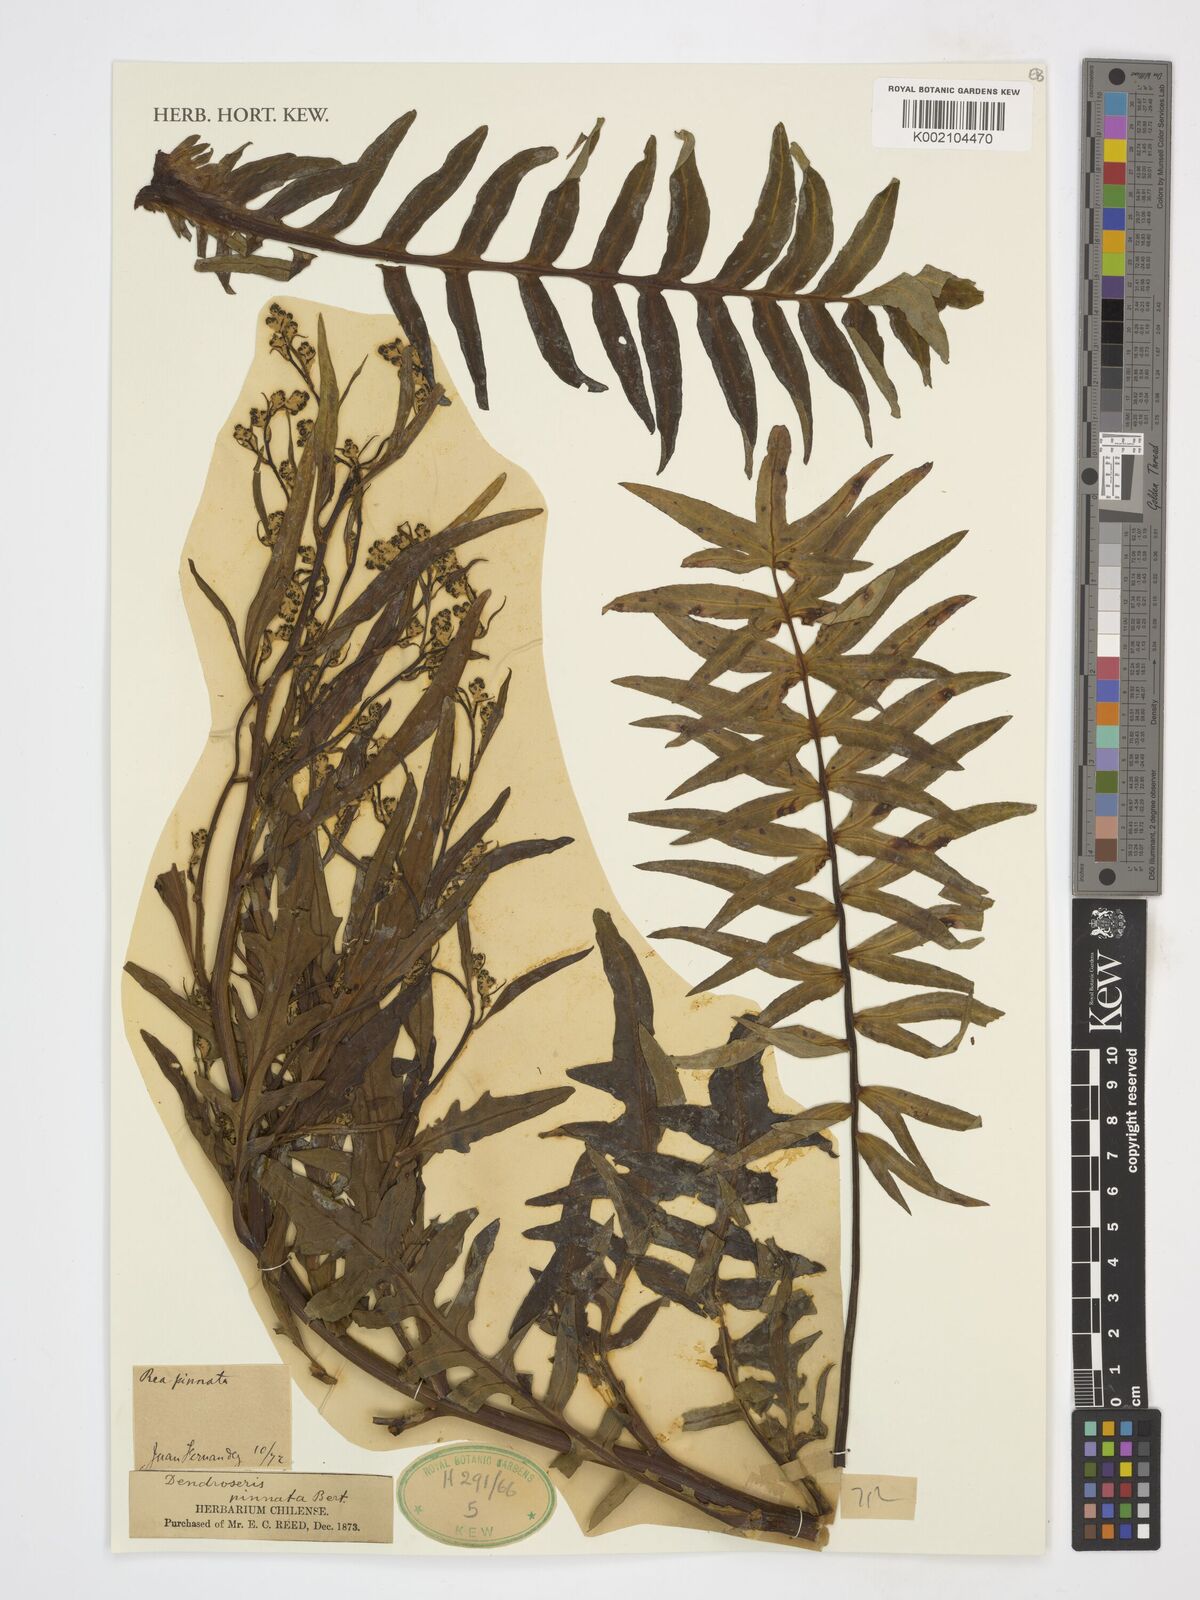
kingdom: Plantae
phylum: Tracheophyta
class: Magnoliopsida
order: Asterales
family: Asteraceae
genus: Sonchus
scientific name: Sonchus phoeniciformis
